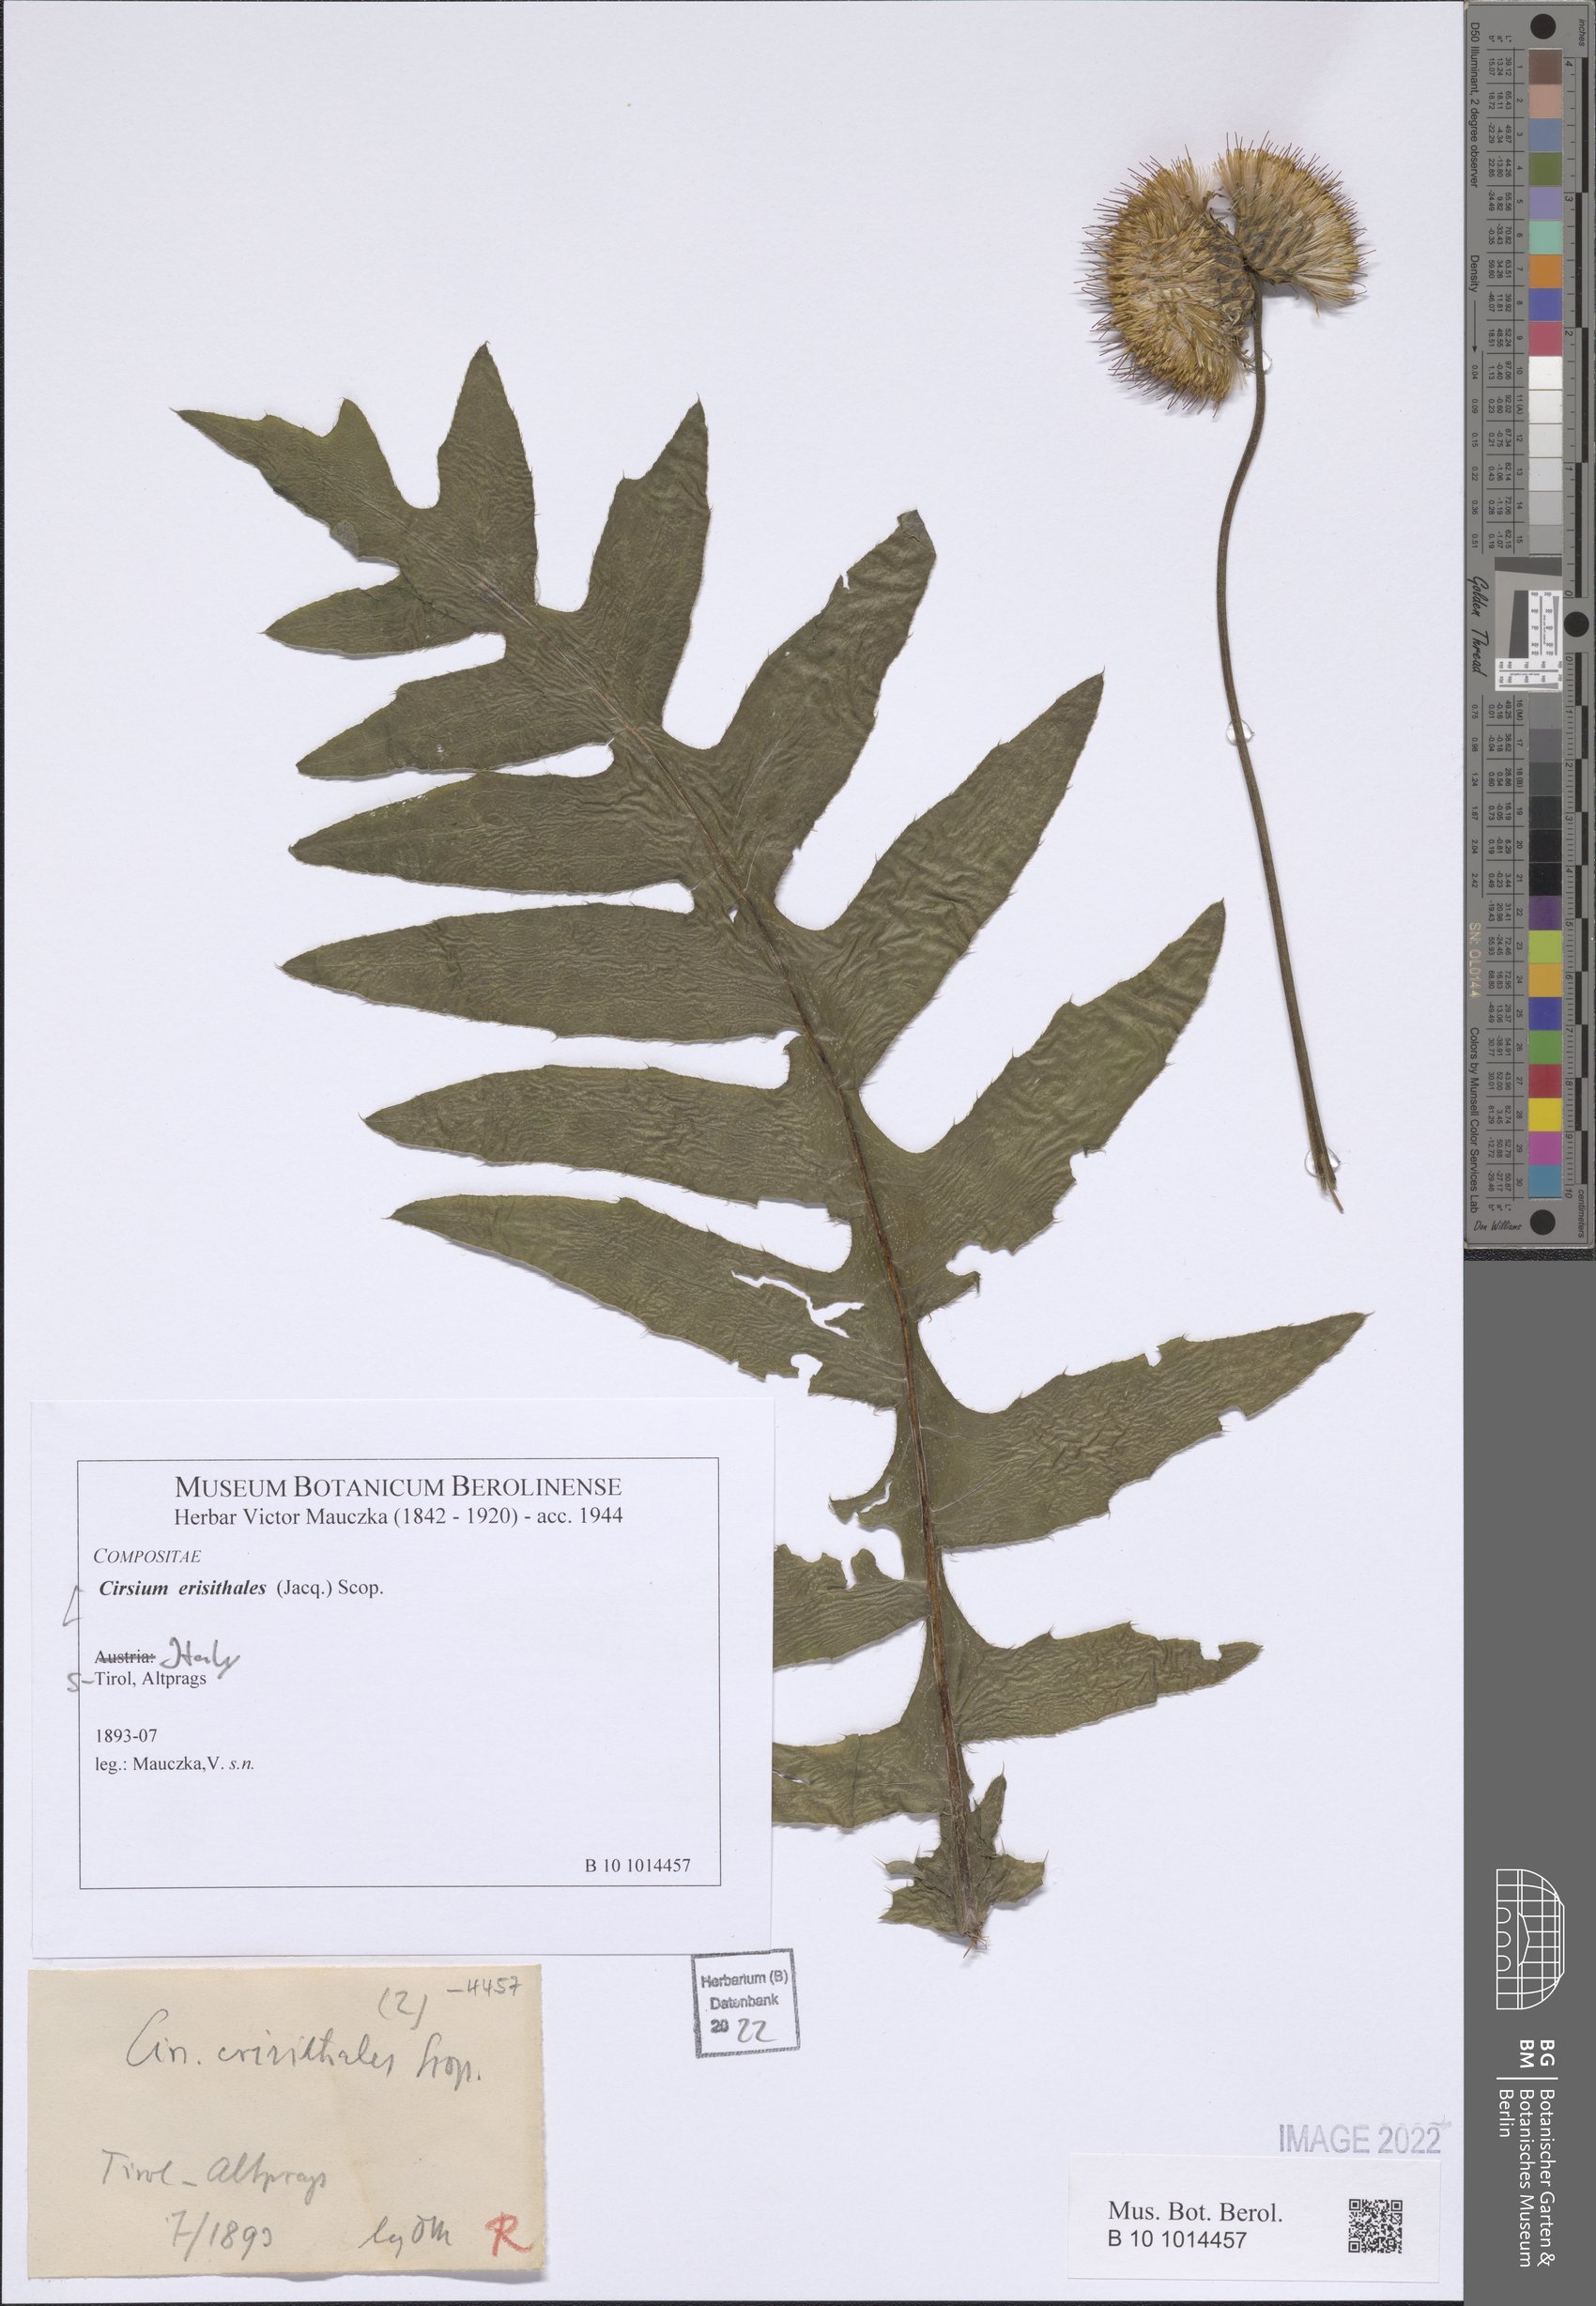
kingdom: Plantae
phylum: Tracheophyta
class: Magnoliopsida
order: Asterales
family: Asteraceae
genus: Cirsium
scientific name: Cirsium erisithales
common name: Yellow thistle
